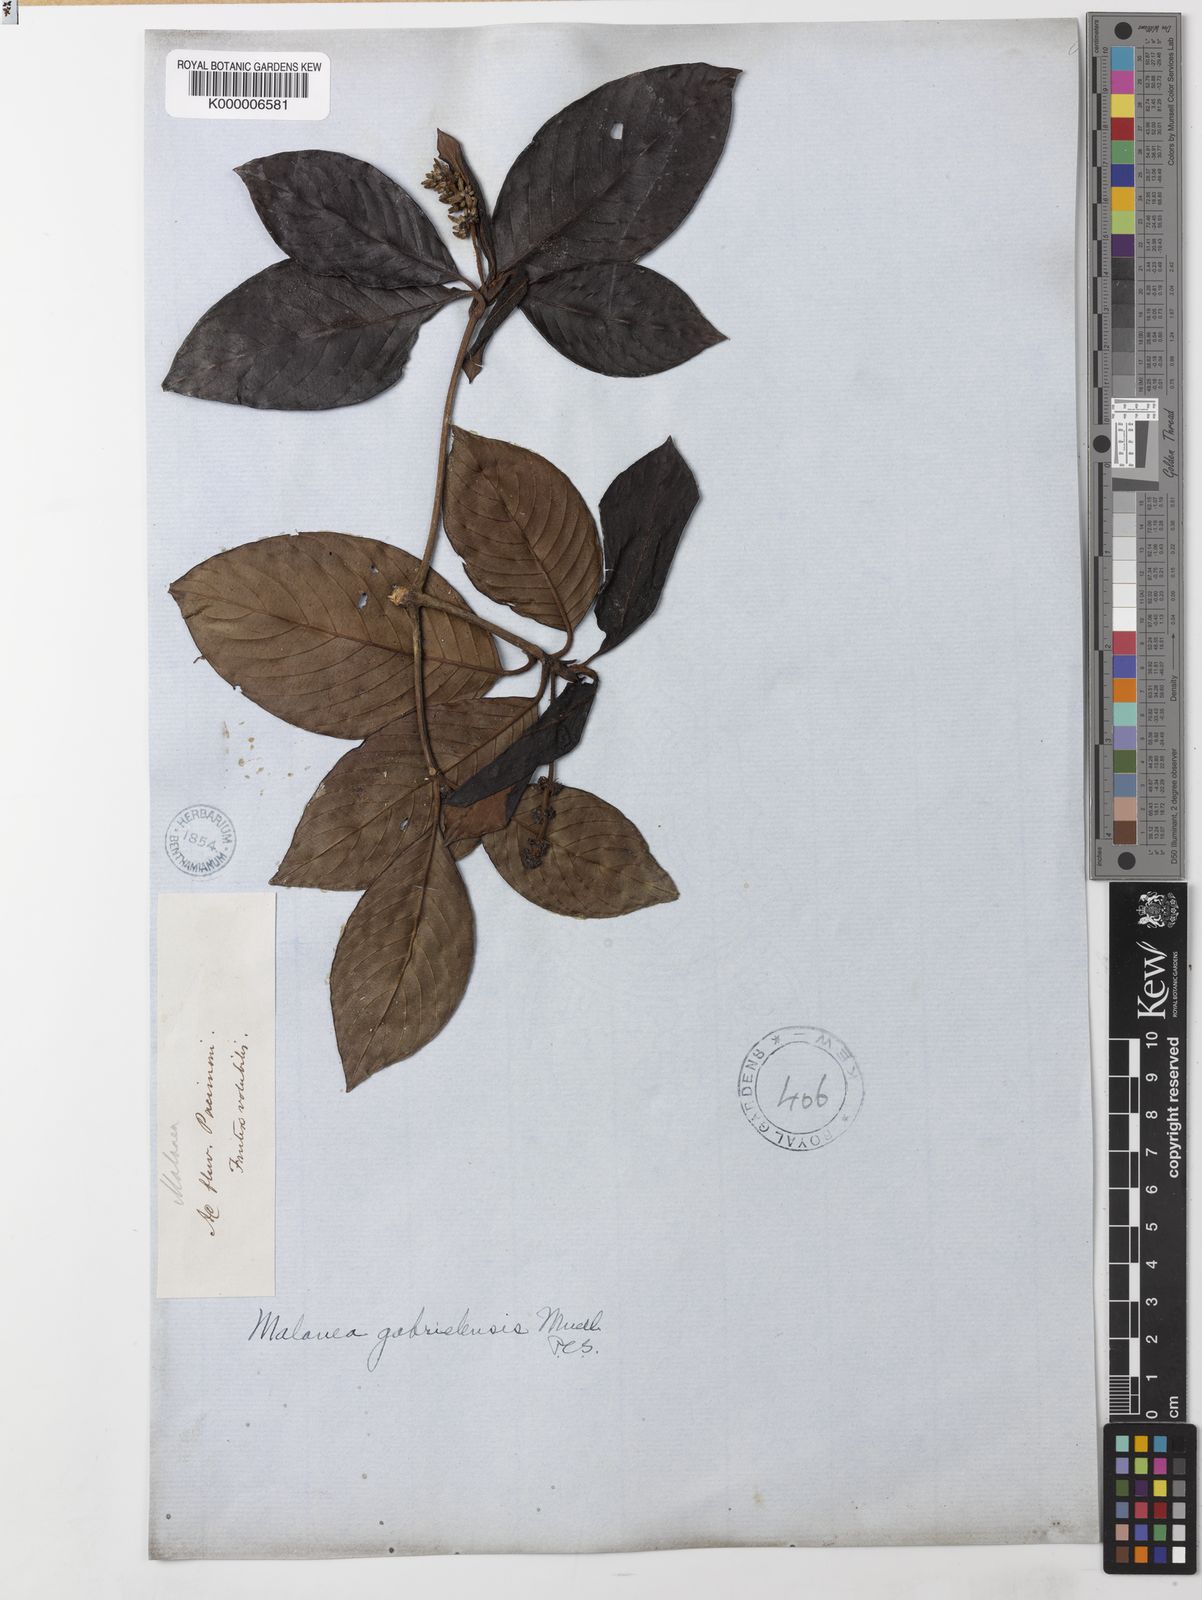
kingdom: Plantae
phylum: Tracheophyta
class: Magnoliopsida
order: Gentianales
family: Rubiaceae
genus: Malanea
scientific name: Malanea
